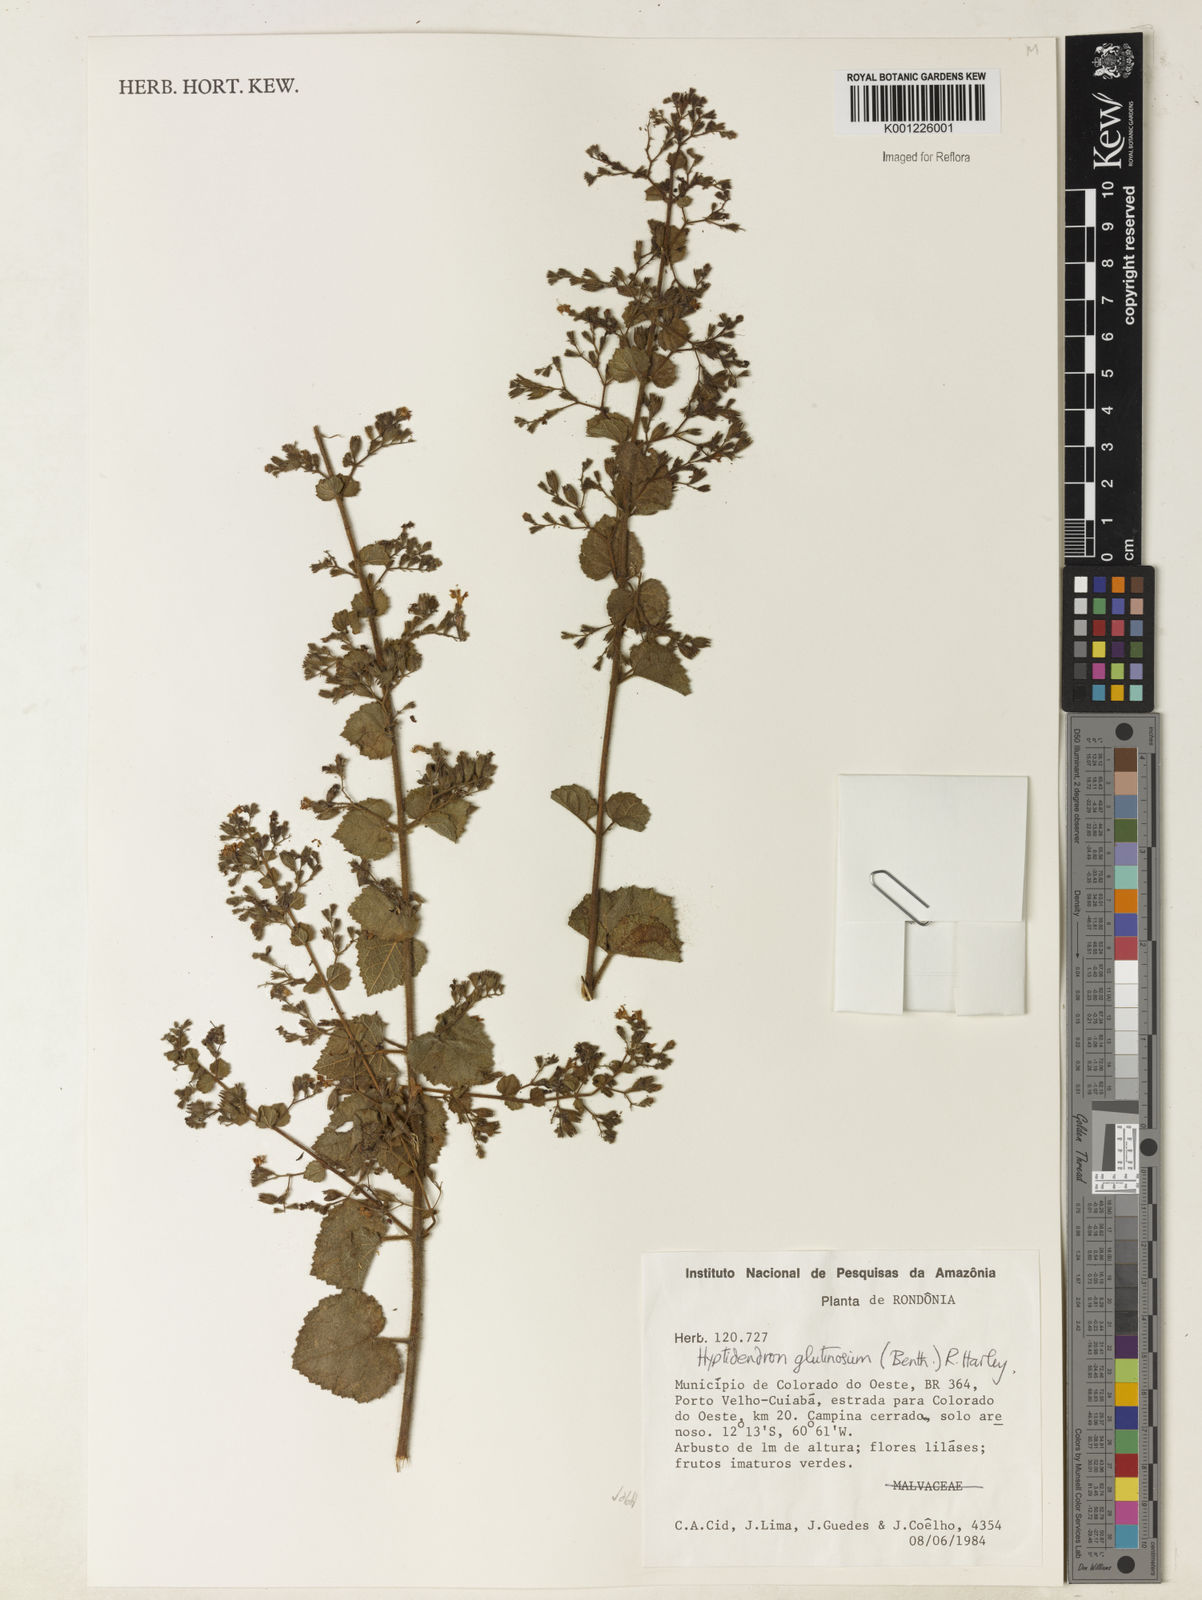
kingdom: Plantae
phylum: Tracheophyta
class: Magnoliopsida
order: Lamiales
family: Lamiaceae
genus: Hyptidendron
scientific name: Hyptidendron glutinosum
